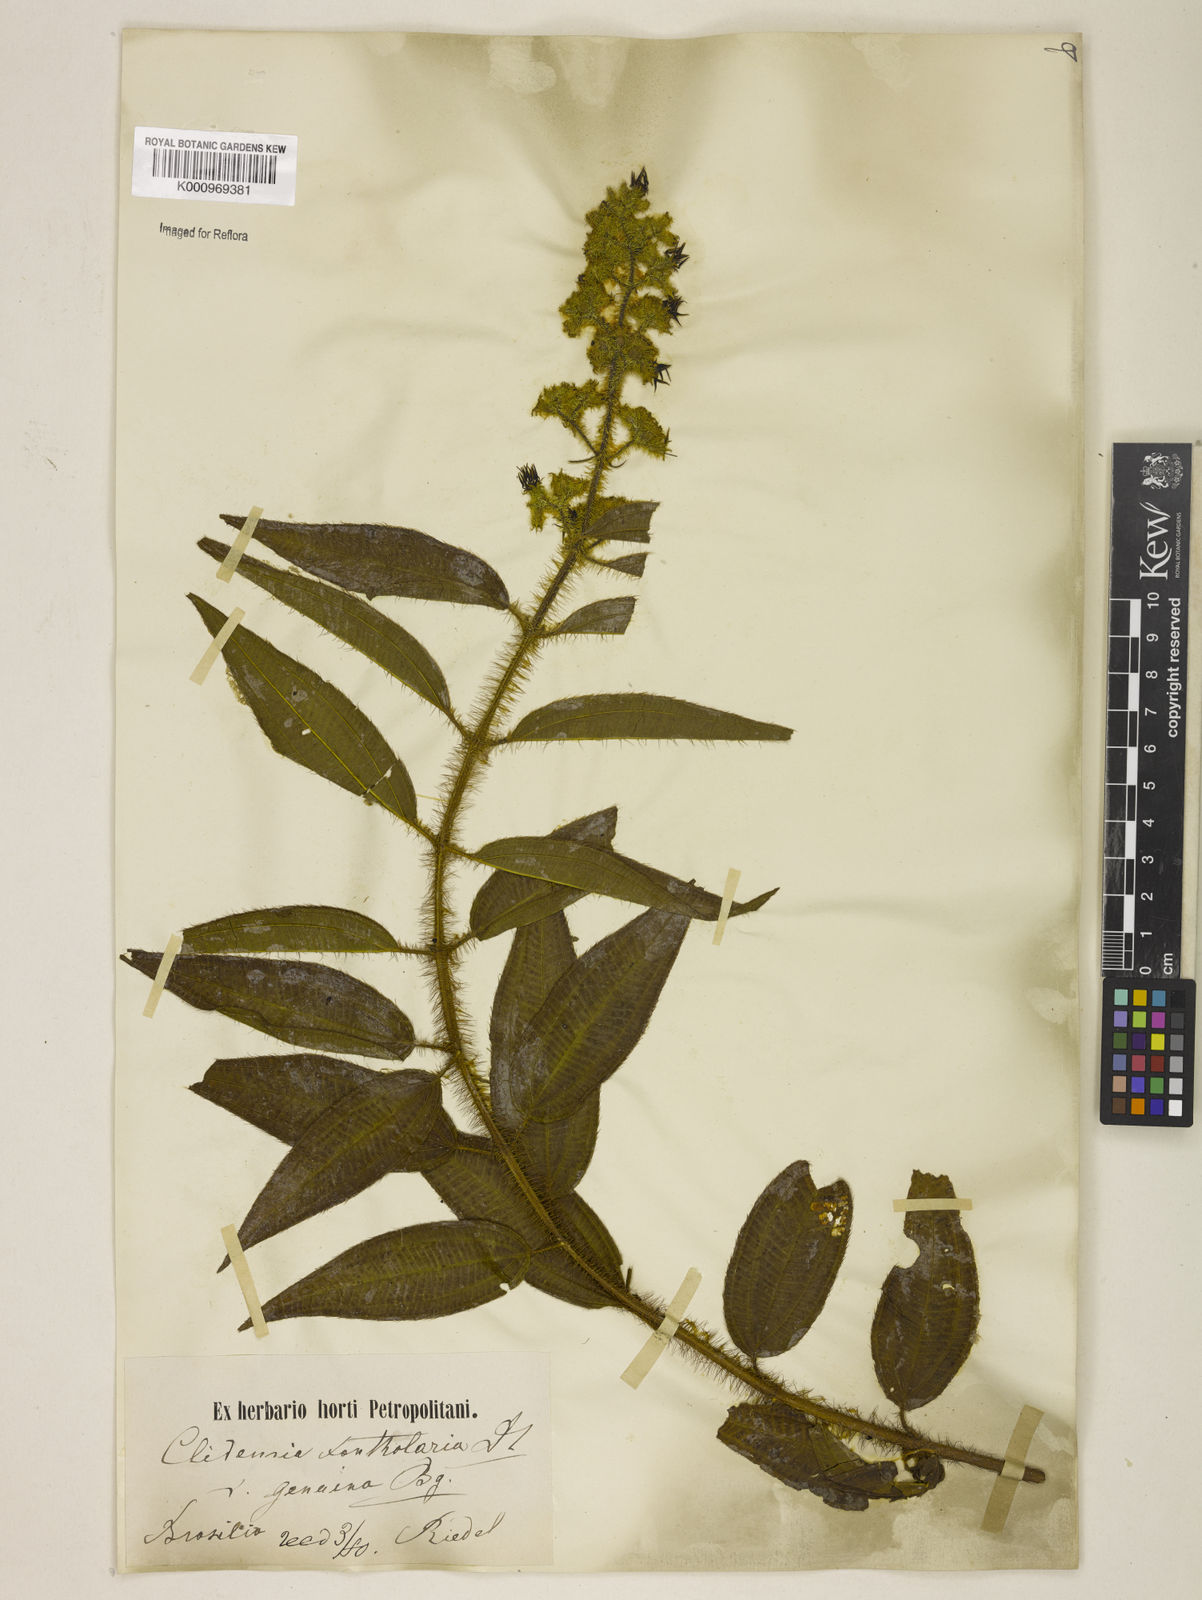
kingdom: Plantae
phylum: Tracheophyta
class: Magnoliopsida
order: Myrtales
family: Melastomataceae
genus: Miconia
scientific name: Miconia xantholasia
